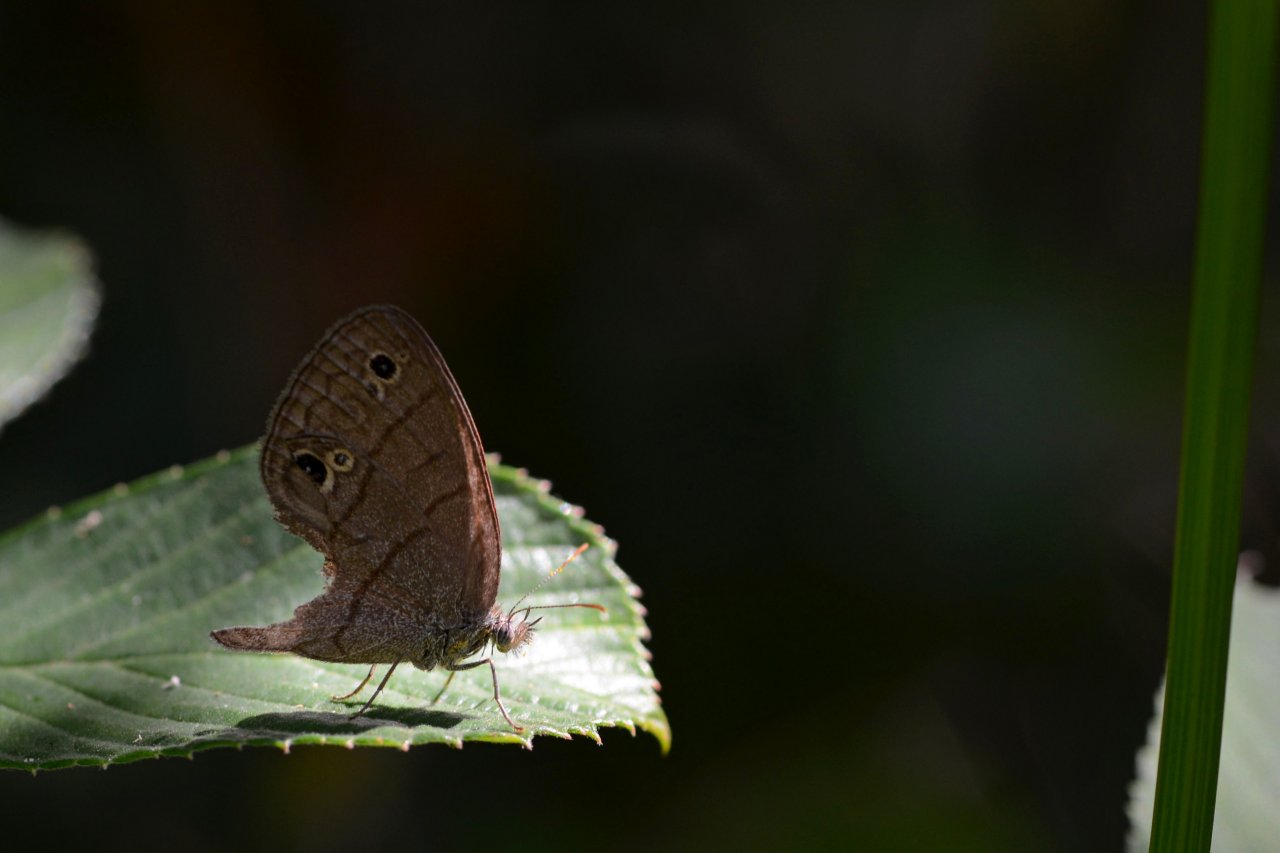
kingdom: Animalia
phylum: Arthropoda
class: Insecta
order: Lepidoptera
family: Nymphalidae
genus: Hermeuptychia
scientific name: Hermeuptychia intricata
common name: Intricate Satyr
